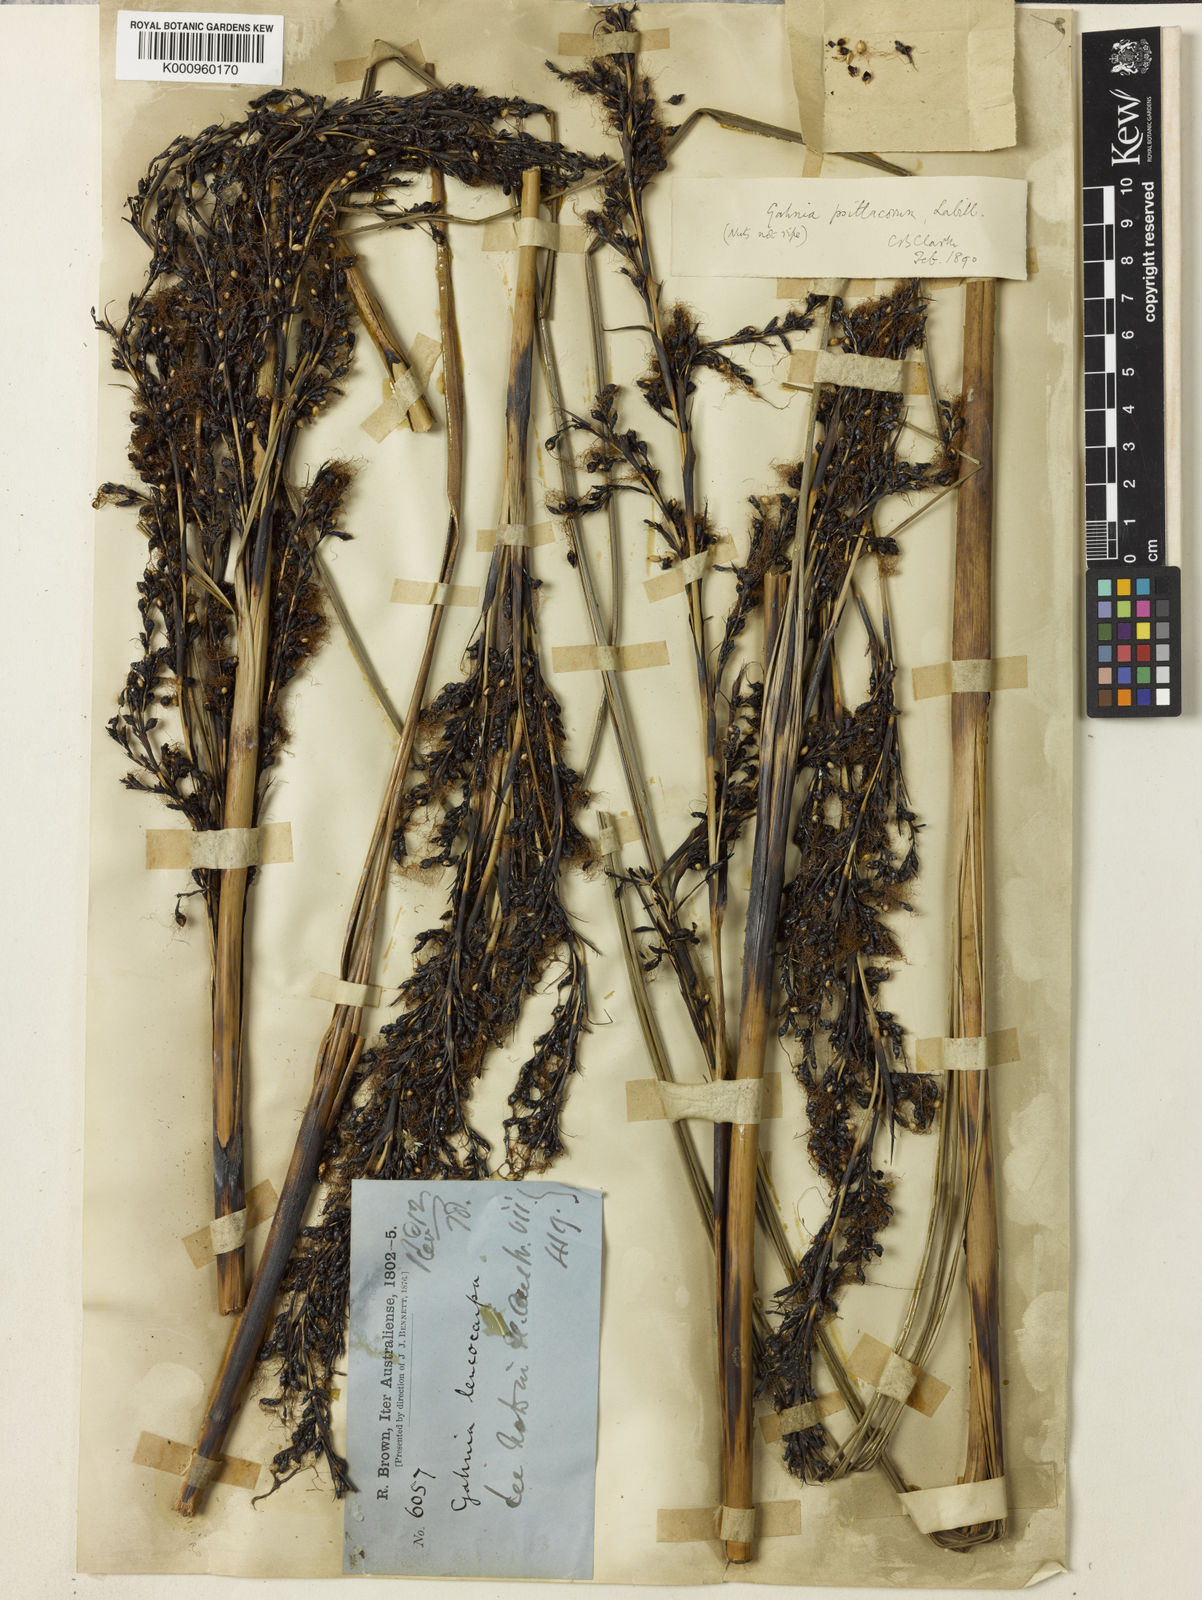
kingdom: Plantae
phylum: Tracheophyta
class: Liliopsida
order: Poales
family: Cyperaceae
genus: Gahnia
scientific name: Gahnia grandis
